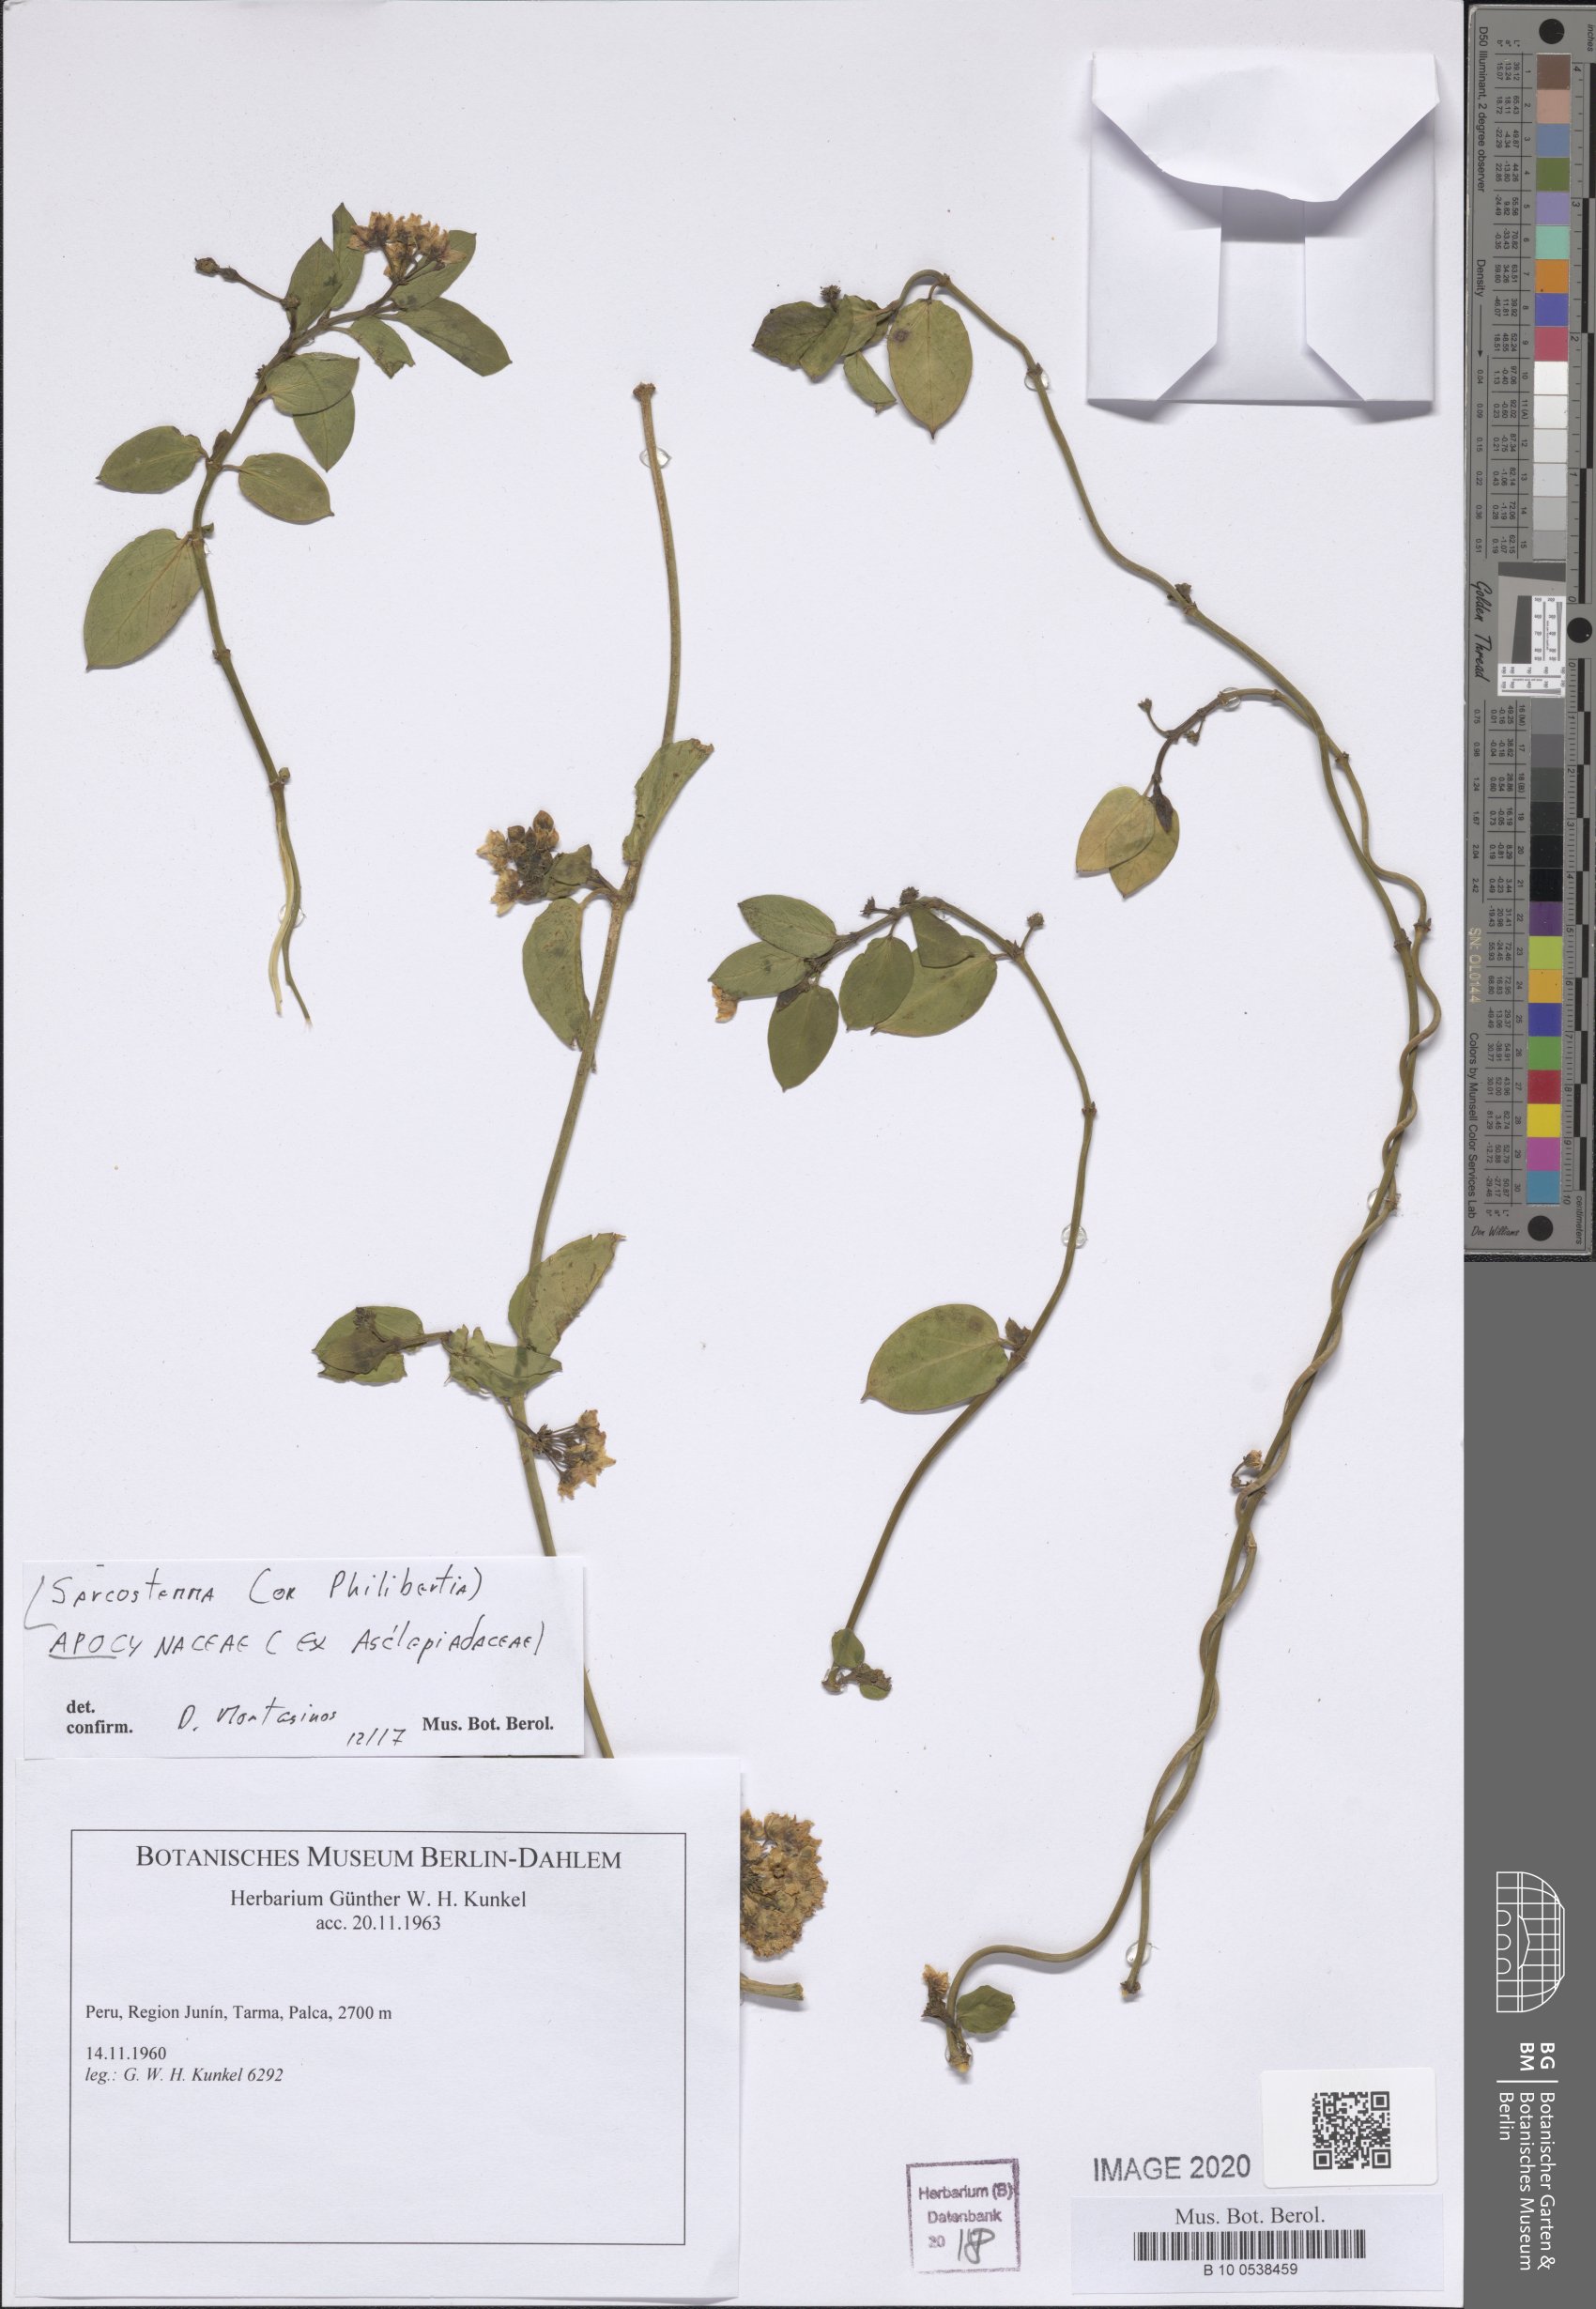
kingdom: Plantae
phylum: Tracheophyta
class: Magnoliopsida
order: Gentianales
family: Apocynaceae
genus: Cynanchum
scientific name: Cynanchum
